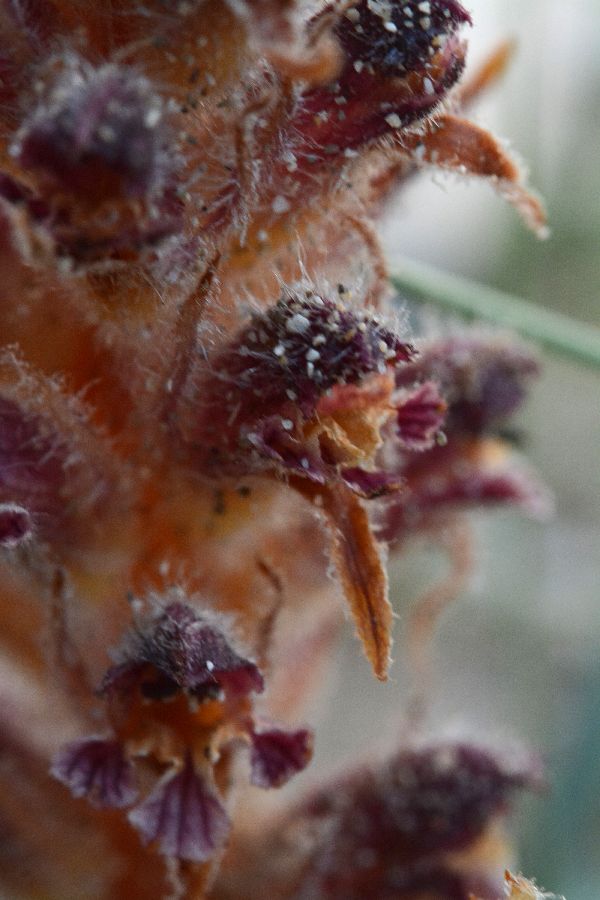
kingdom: Plantae
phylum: Tracheophyta
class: Magnoliopsida
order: Lamiales
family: Orobanchaceae
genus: Orobanche
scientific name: Orobanche sanguinea
